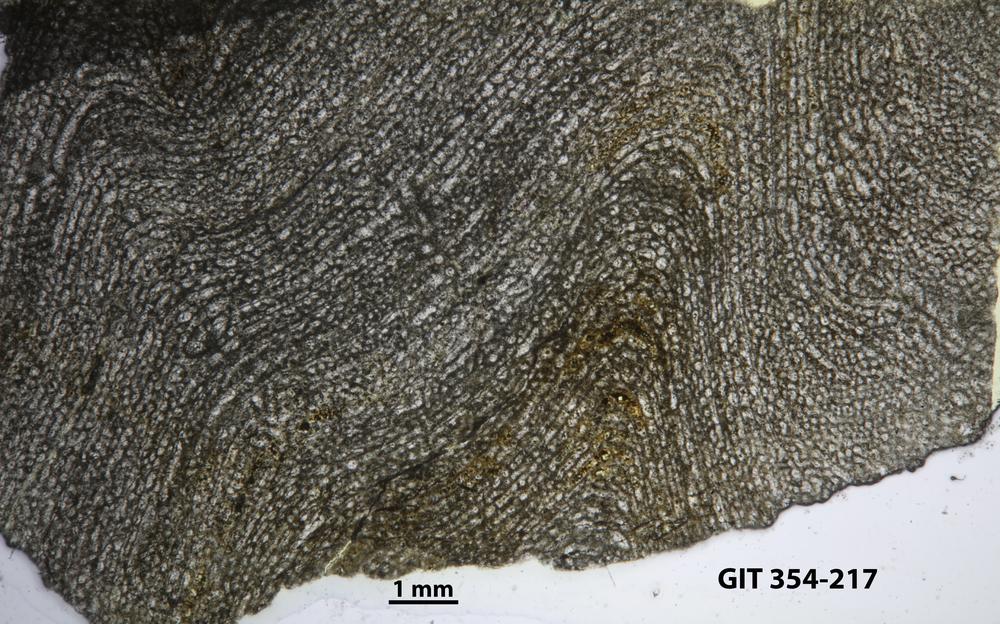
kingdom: Animalia
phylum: Porifera
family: Clathrodictyidae
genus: Clathrodictyon
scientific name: Clathrodictyon kudriavzevi
